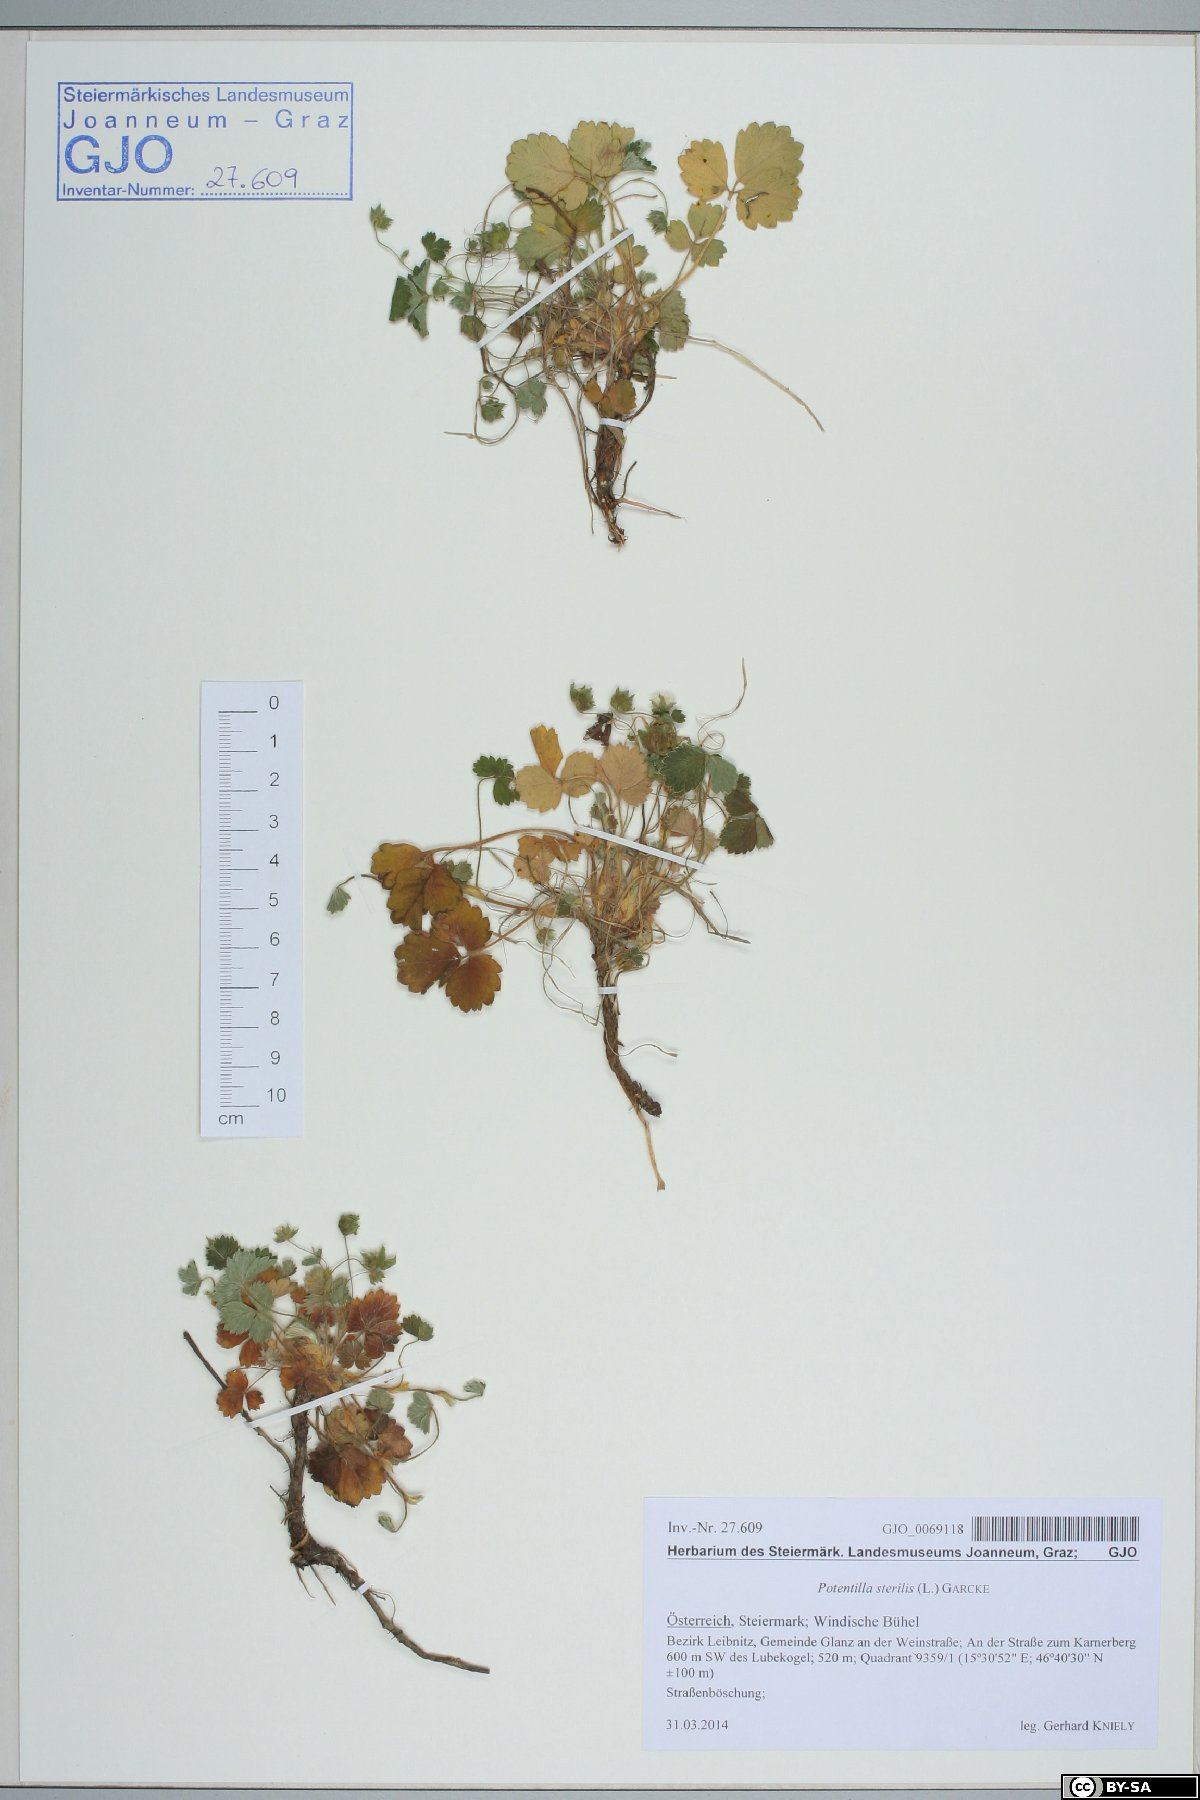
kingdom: Plantae
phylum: Tracheophyta
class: Magnoliopsida
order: Rosales
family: Rosaceae
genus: Potentilla
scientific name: Potentilla sterilis
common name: Barren strawberry
